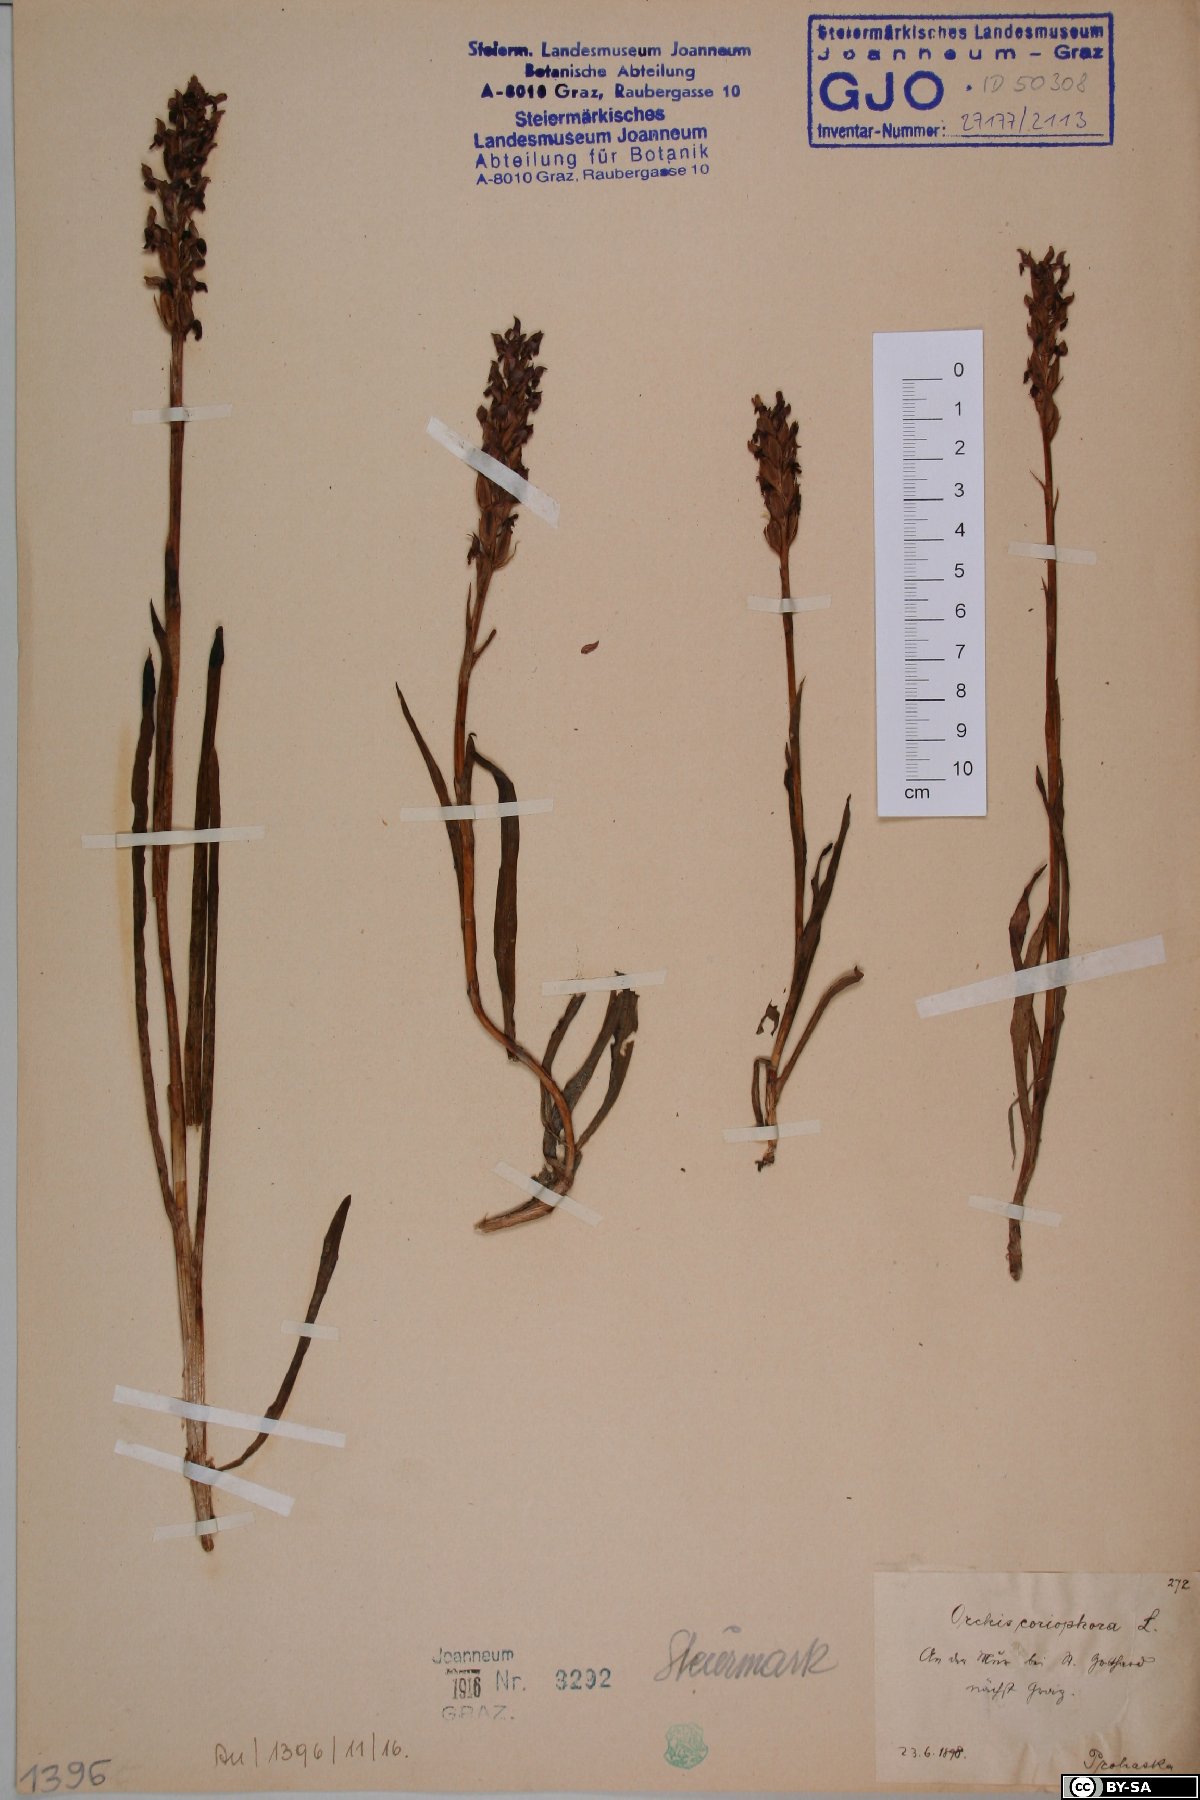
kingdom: Plantae
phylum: Tracheophyta
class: Liliopsida
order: Asparagales
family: Orchidaceae
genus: Anacamptis
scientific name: Anacamptis coriophora
